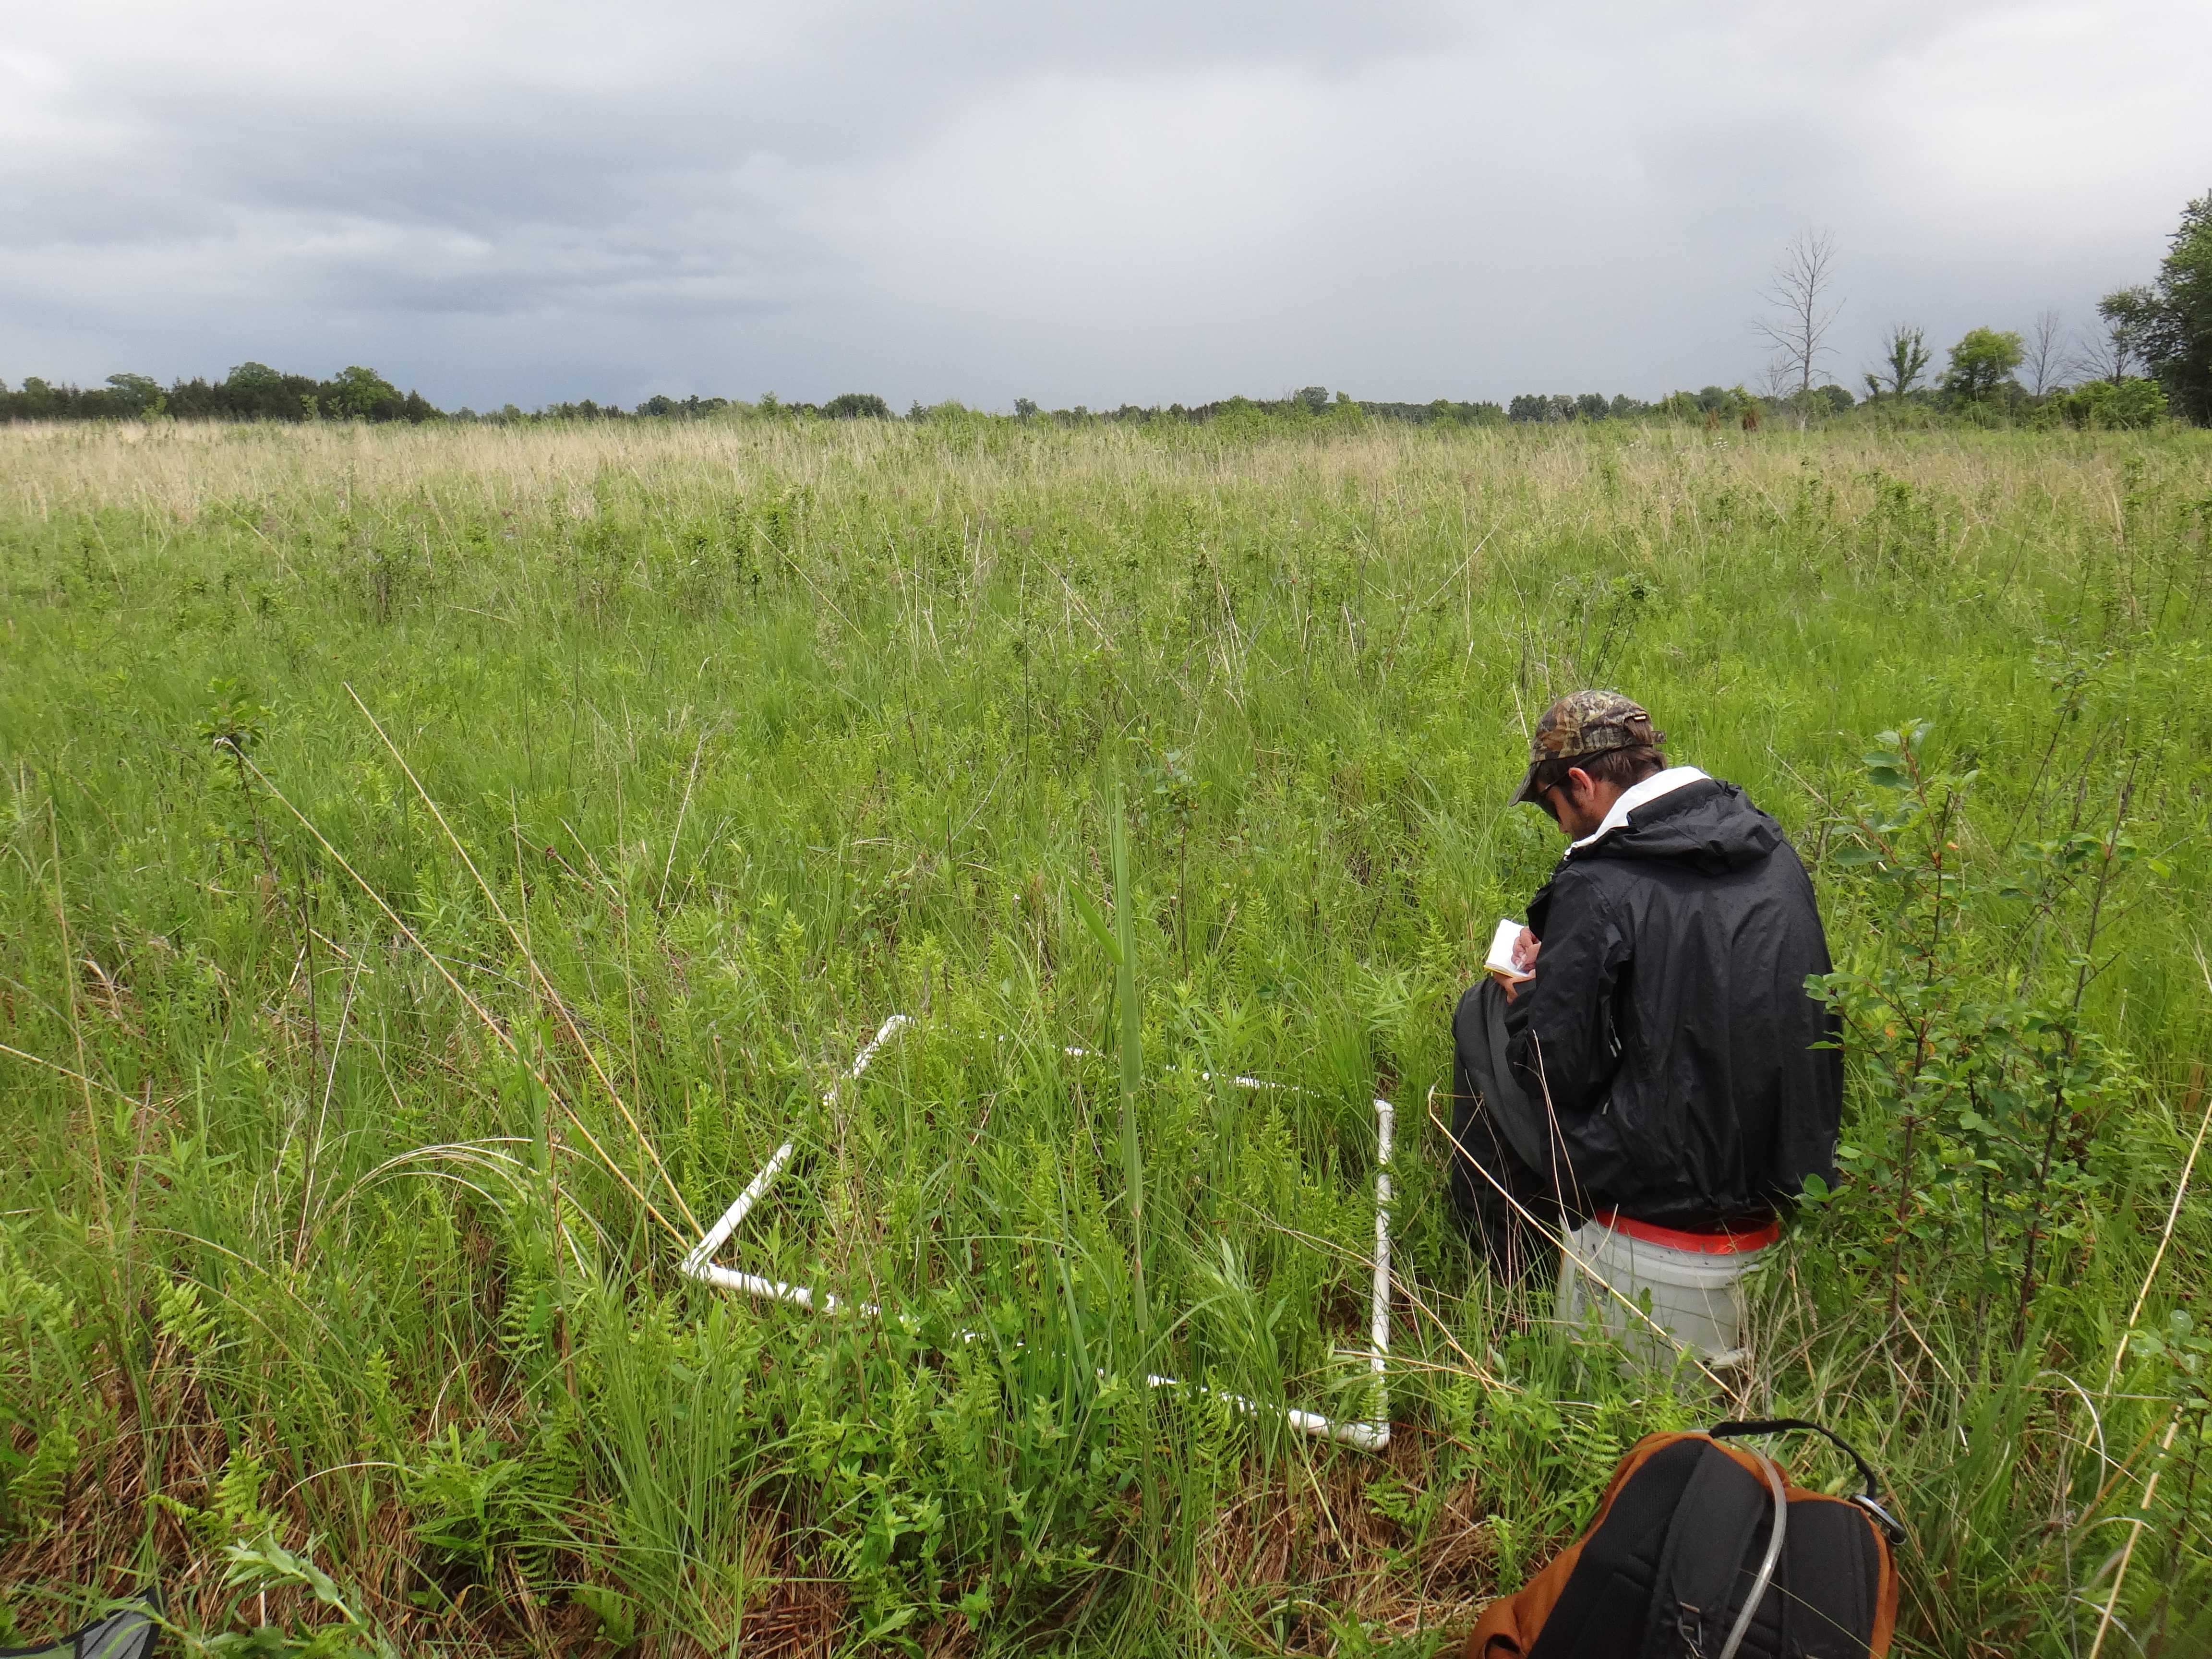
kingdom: Plantae
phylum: Tracheophyta
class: Magnoliopsida
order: Cornales
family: Cornaceae
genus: Cornus
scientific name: Cornus sericea
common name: Red-osier dogwood
